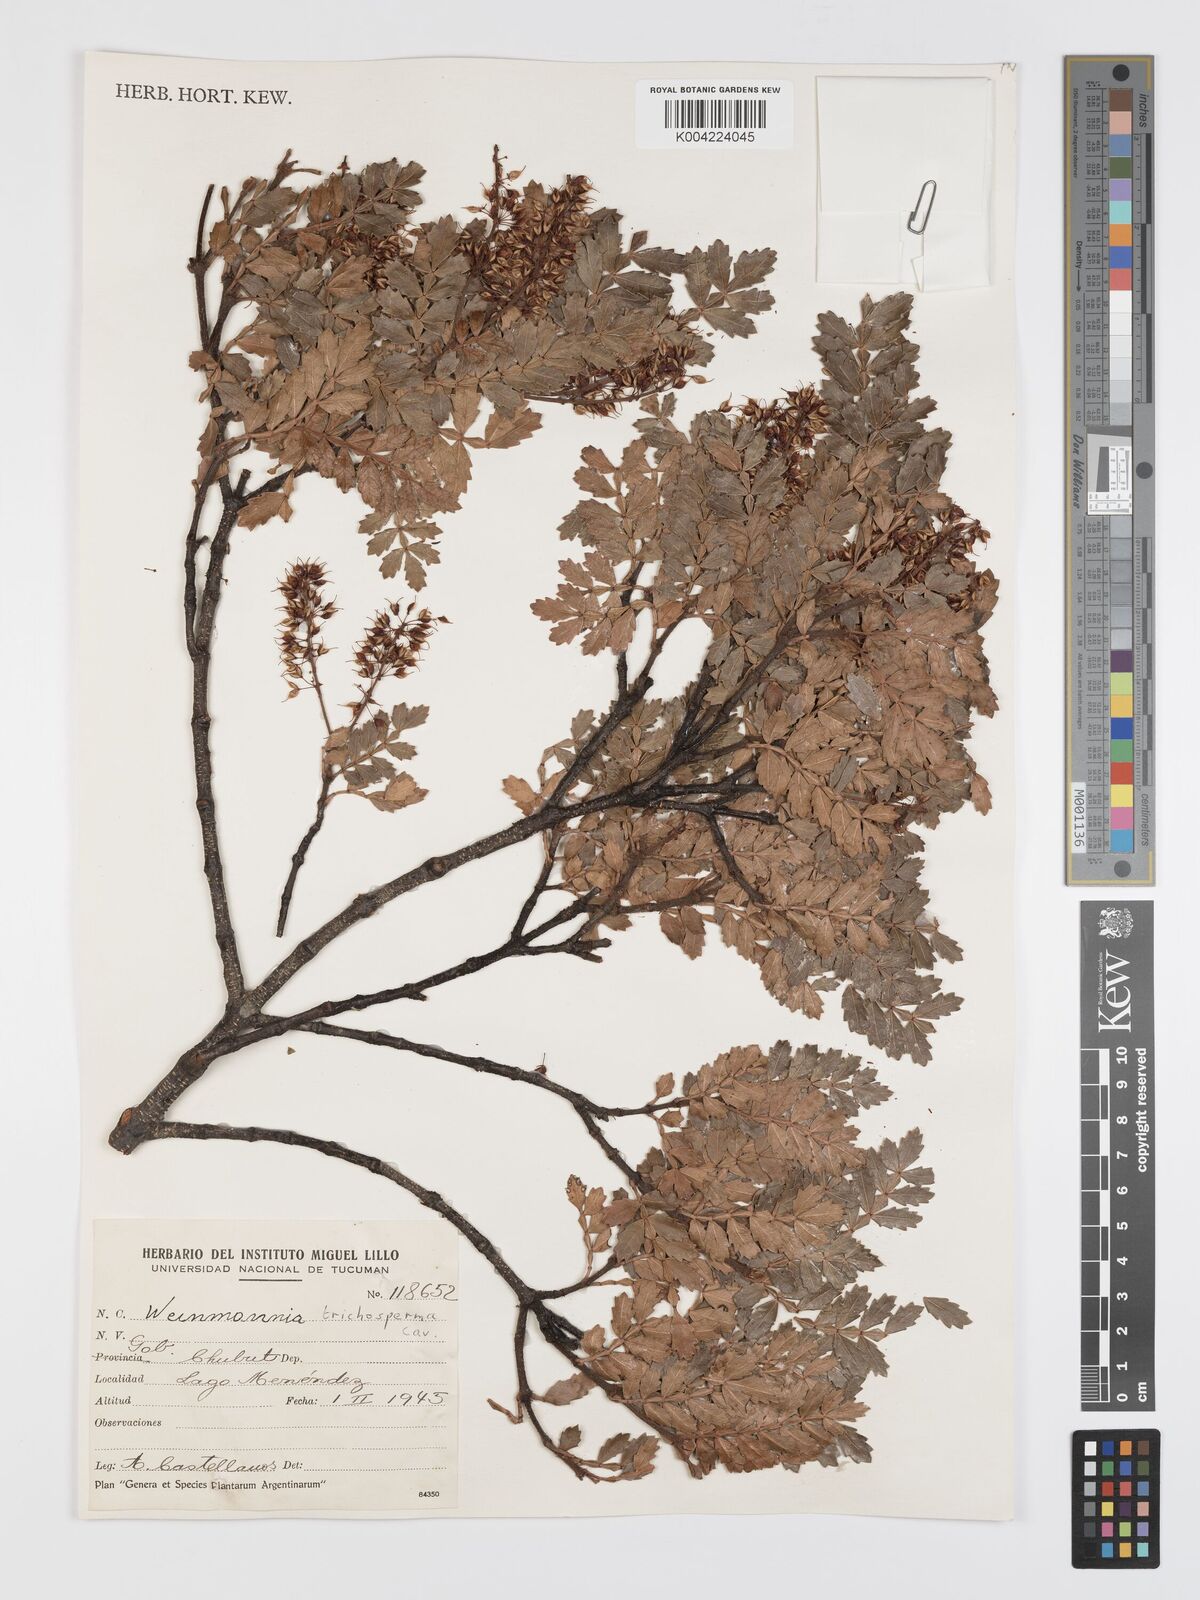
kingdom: Plantae
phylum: Tracheophyta
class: Magnoliopsida
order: Oxalidales
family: Cunoniaceae
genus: Weinmannia
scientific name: Weinmannia trichosperma
